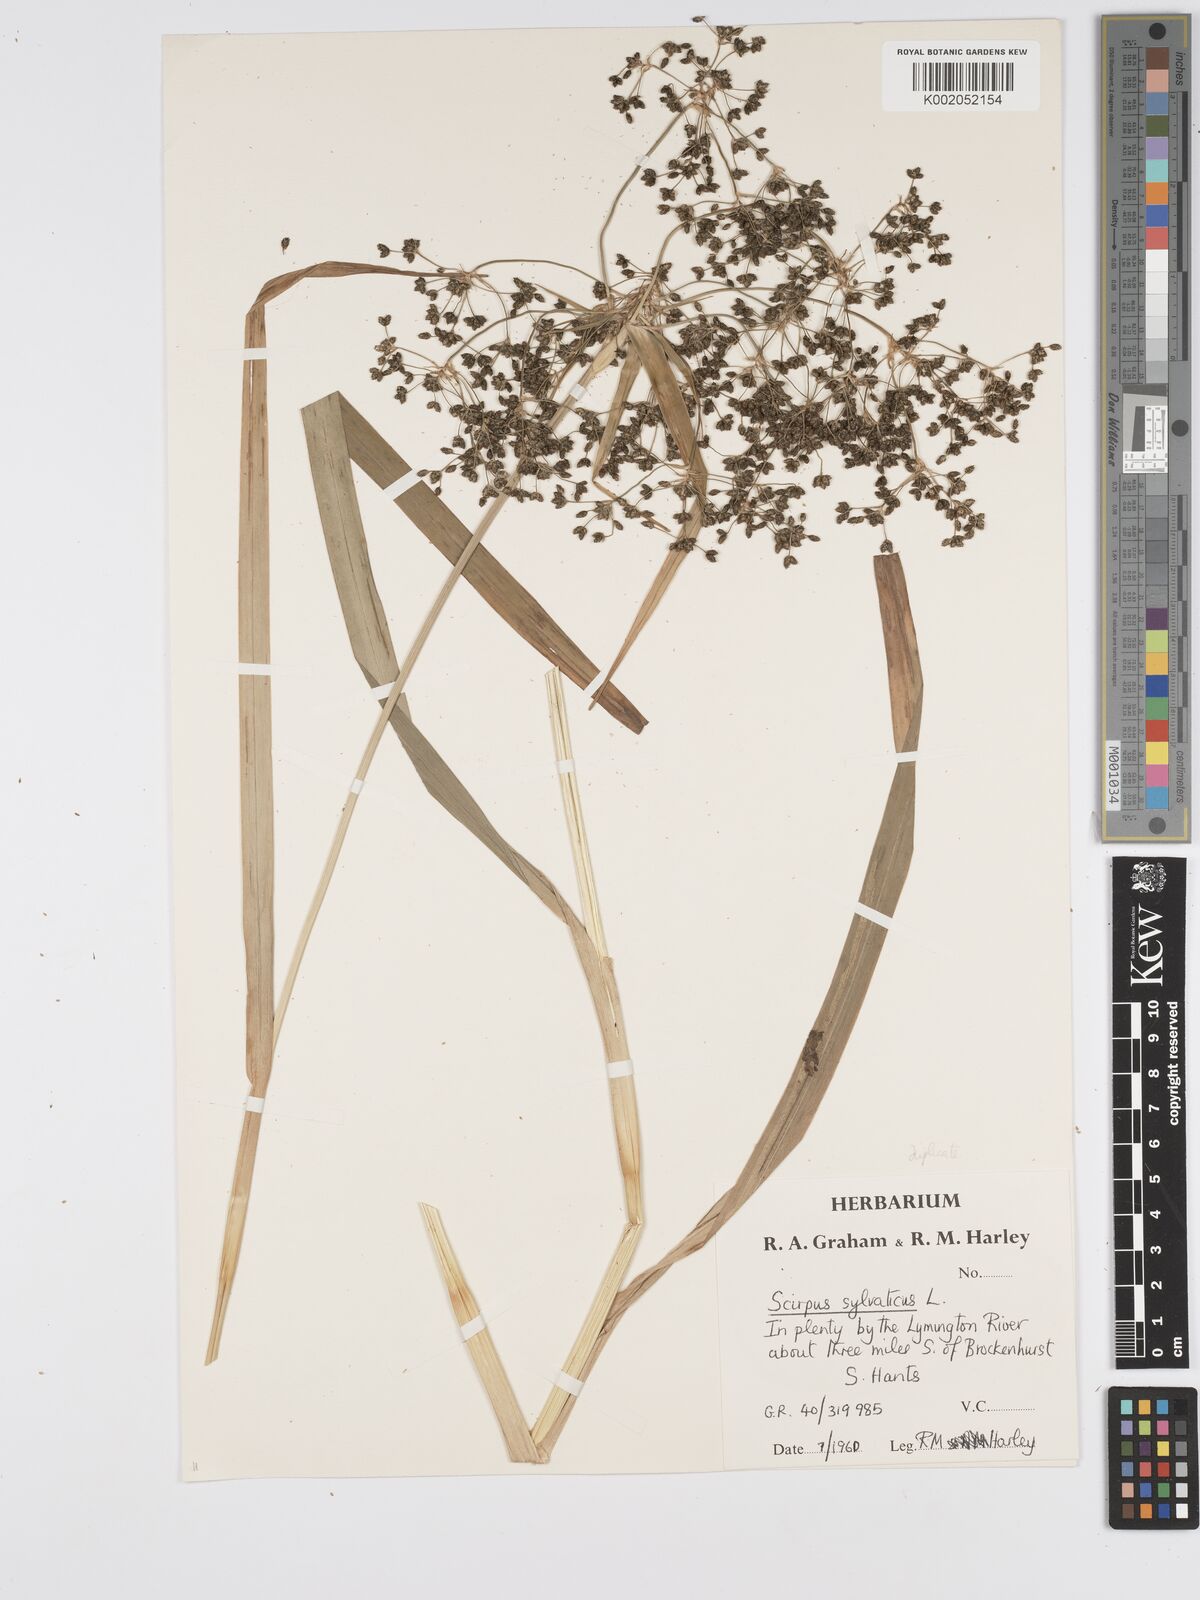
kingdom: Plantae
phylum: Tracheophyta
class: Liliopsida
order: Poales
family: Cyperaceae
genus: Scirpus
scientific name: Scirpus sylvaticus
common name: Wood club-rush
